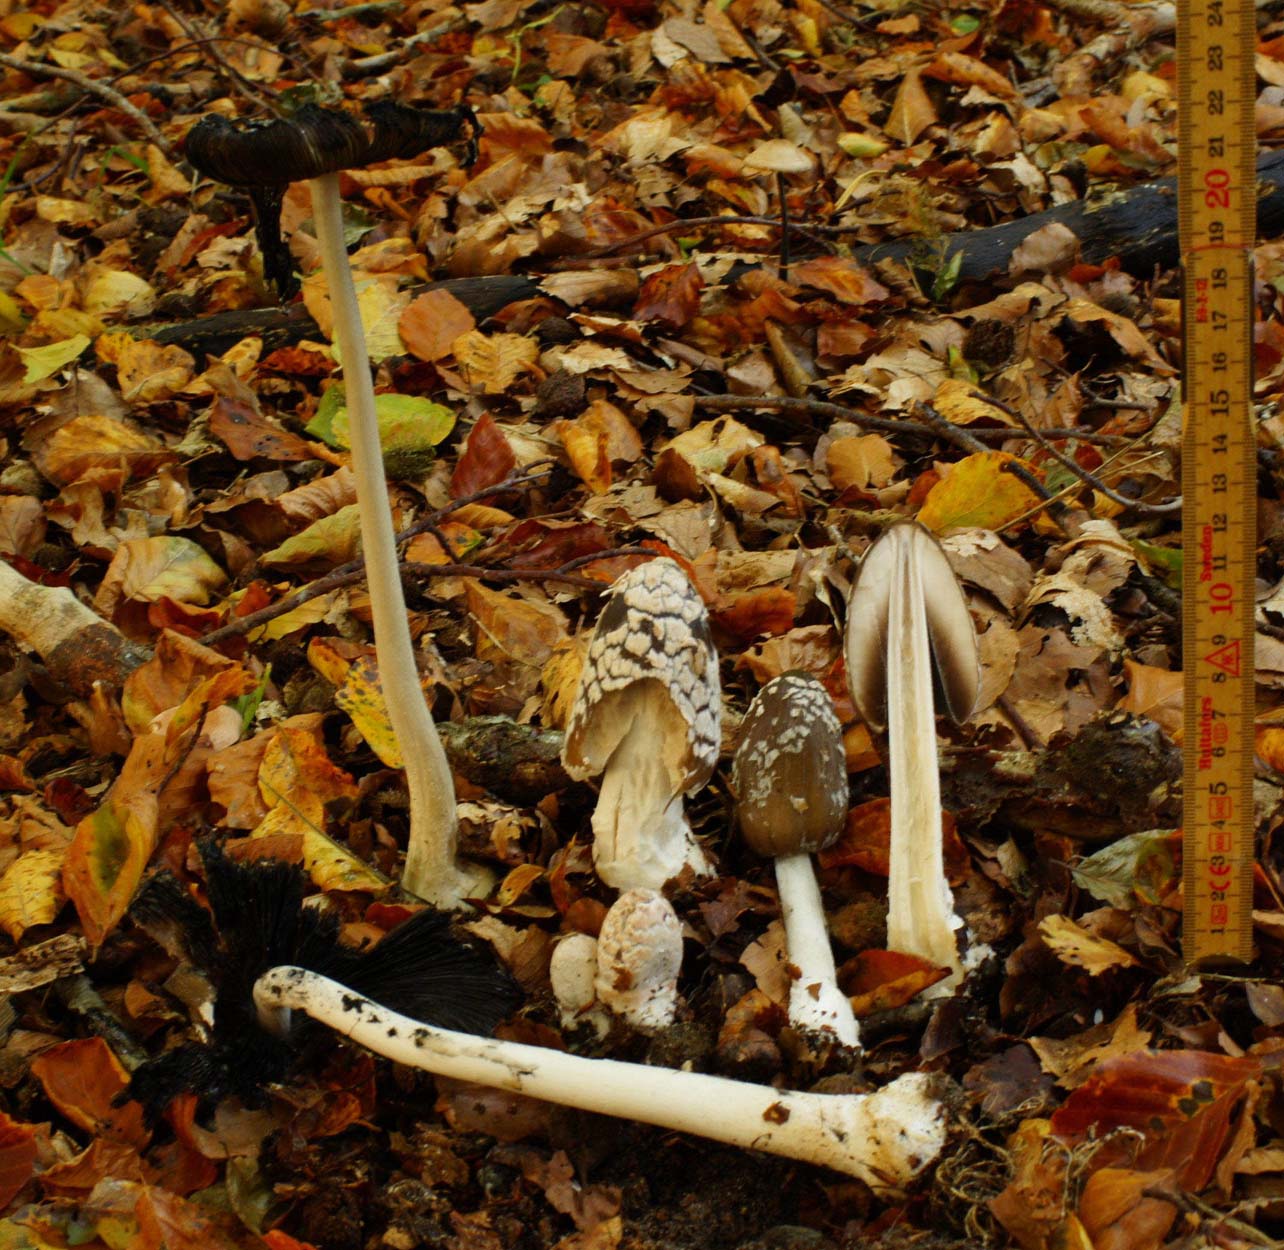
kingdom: Fungi
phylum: Basidiomycota
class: Agaricomycetes
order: Agaricales
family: Psathyrellaceae
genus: Coprinopsis
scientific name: Coprinopsis picacea
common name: skade-blækhat
